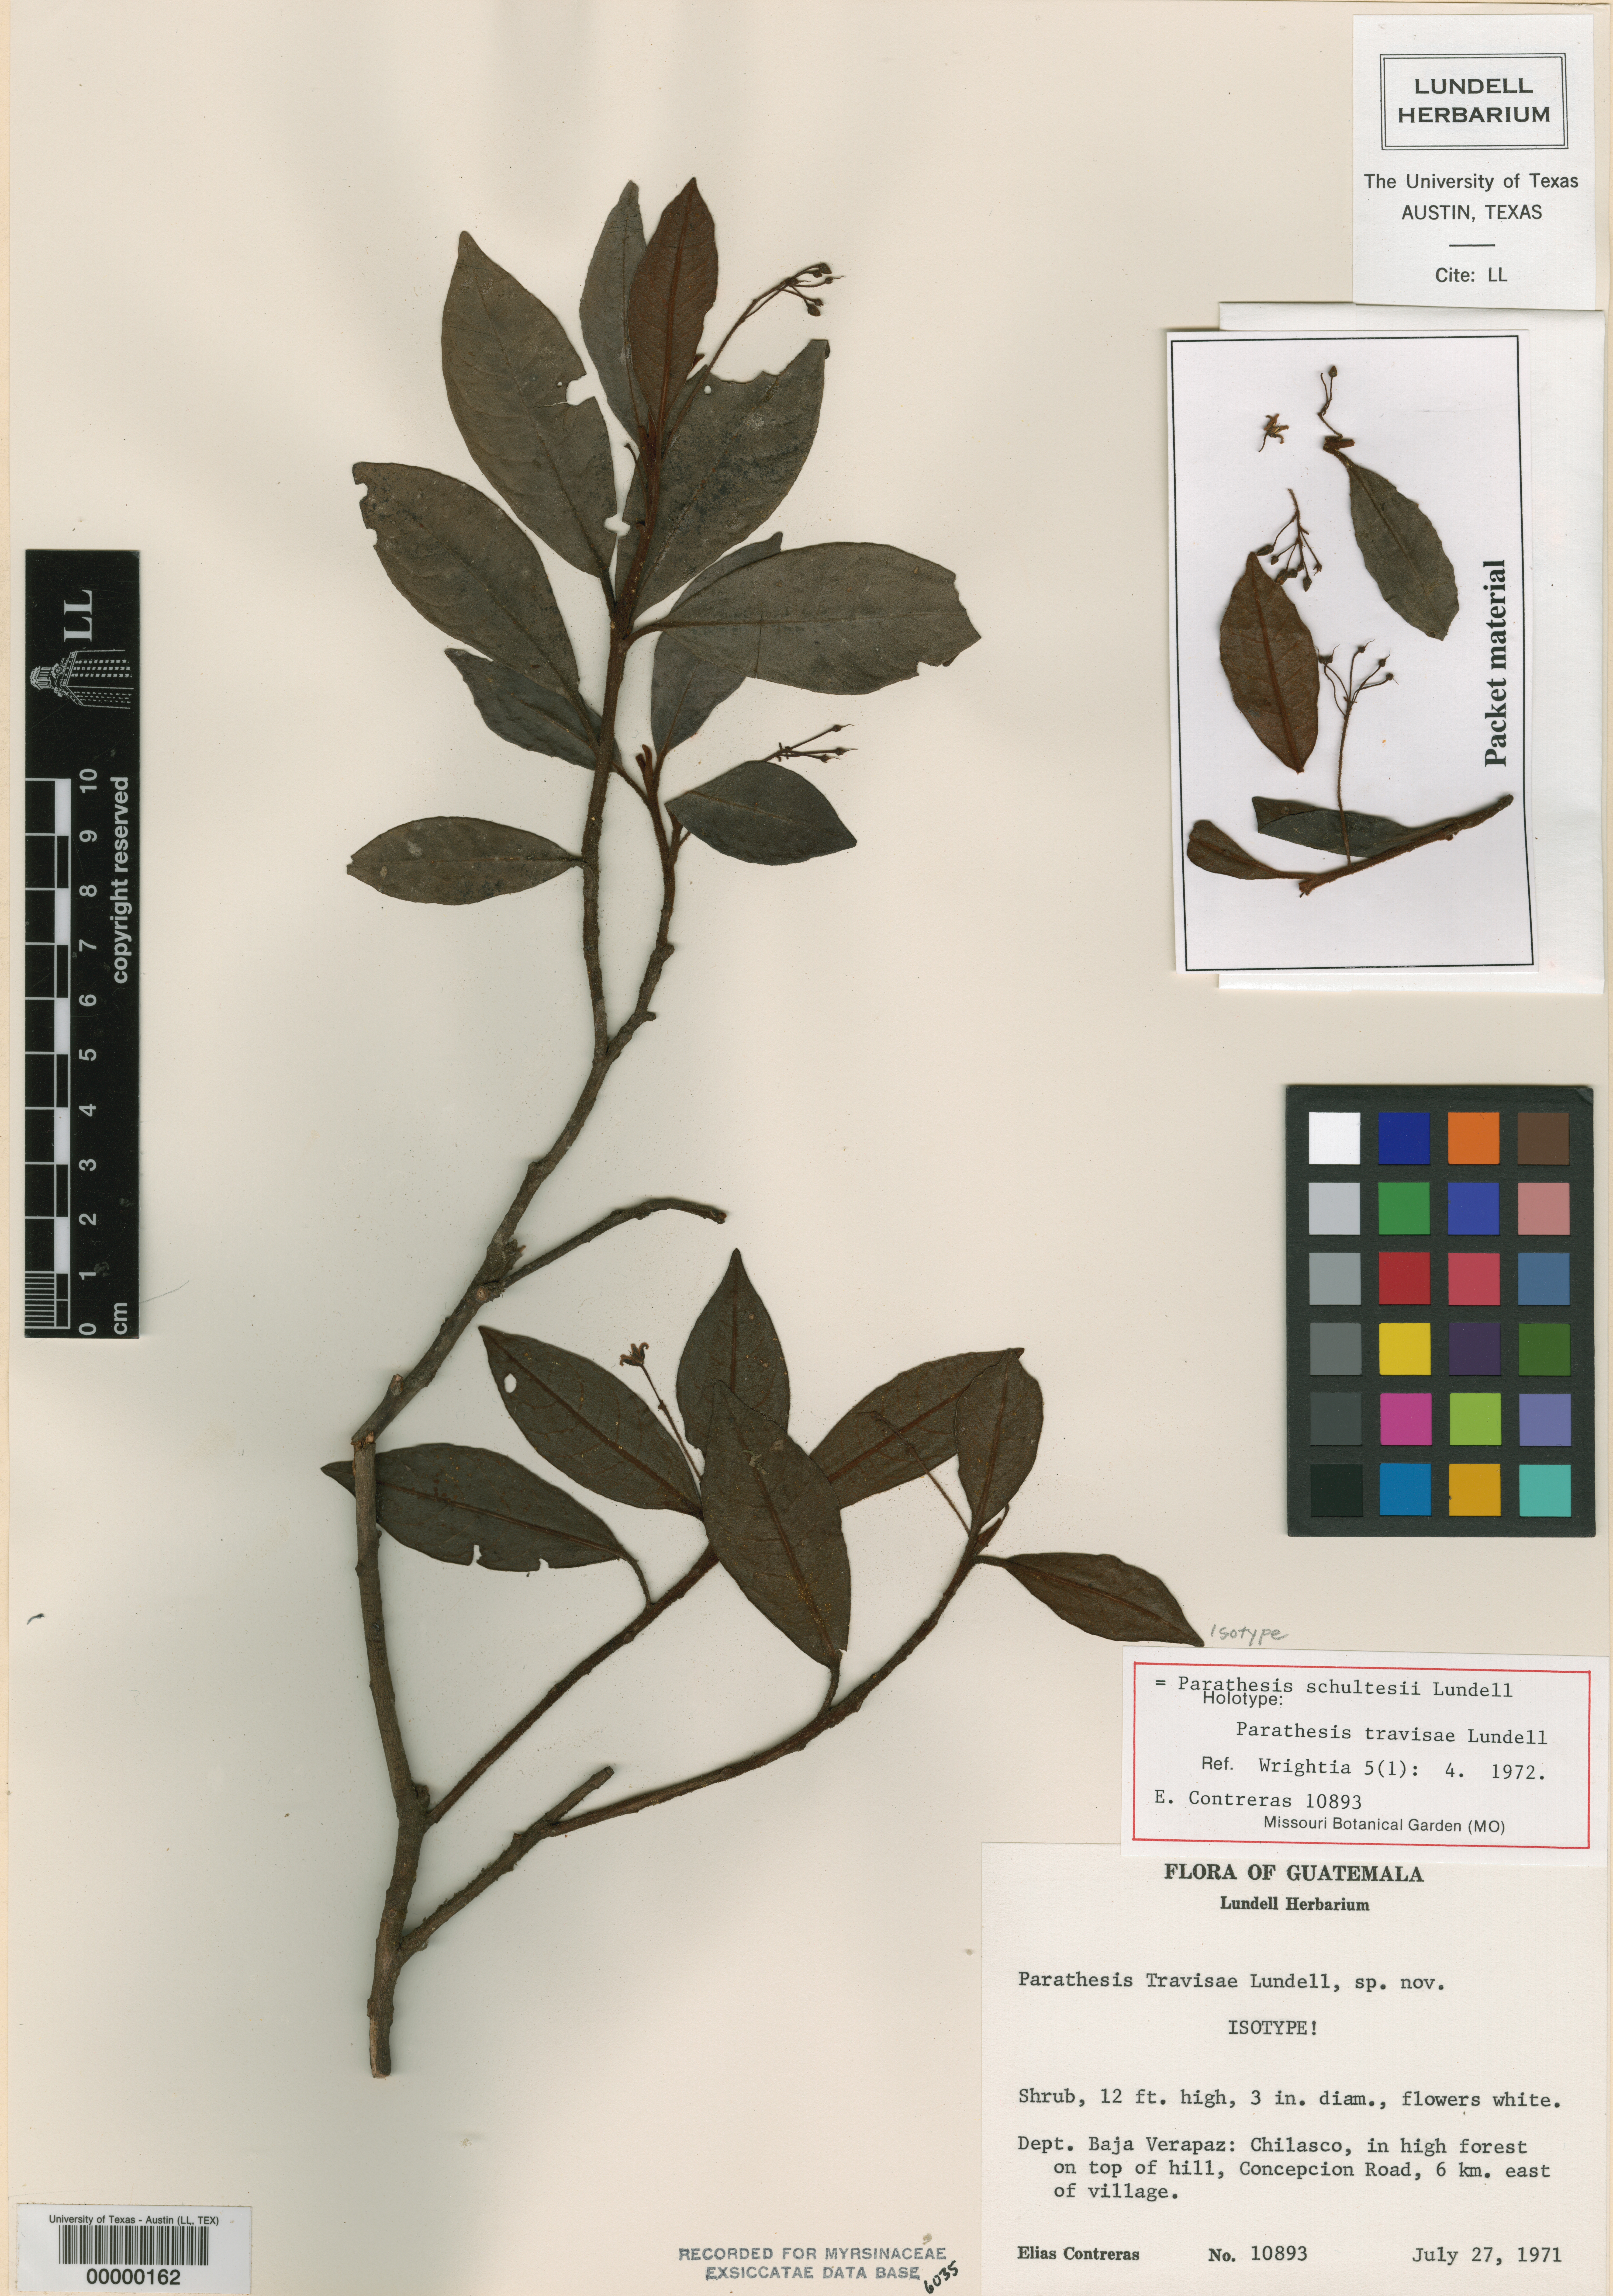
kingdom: Plantae
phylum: Tracheophyta
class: Magnoliopsida
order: Ericales
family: Primulaceae
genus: Parathesis
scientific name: Parathesis schultesii
